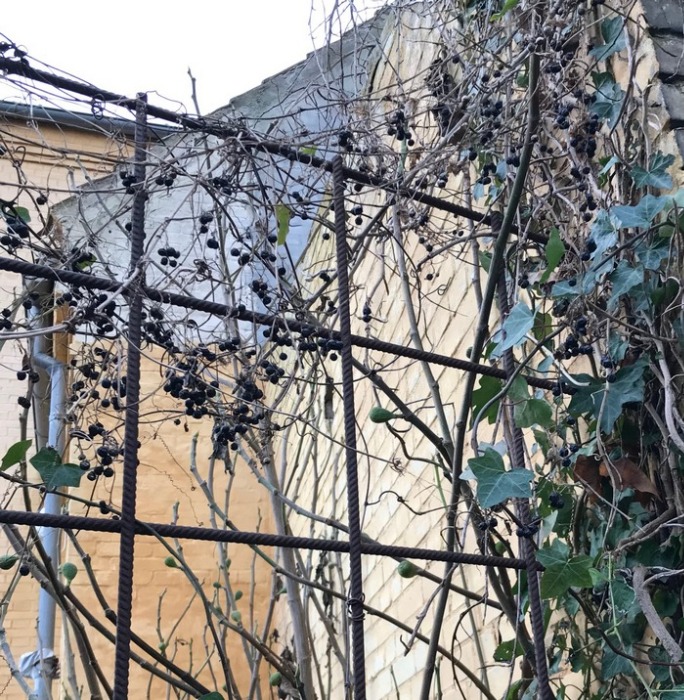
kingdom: Plantae
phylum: Tracheophyta
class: Magnoliopsida
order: Cucurbitales
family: Cucurbitaceae
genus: Bryonia
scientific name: Bryonia alba
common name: Enbo galdebær
